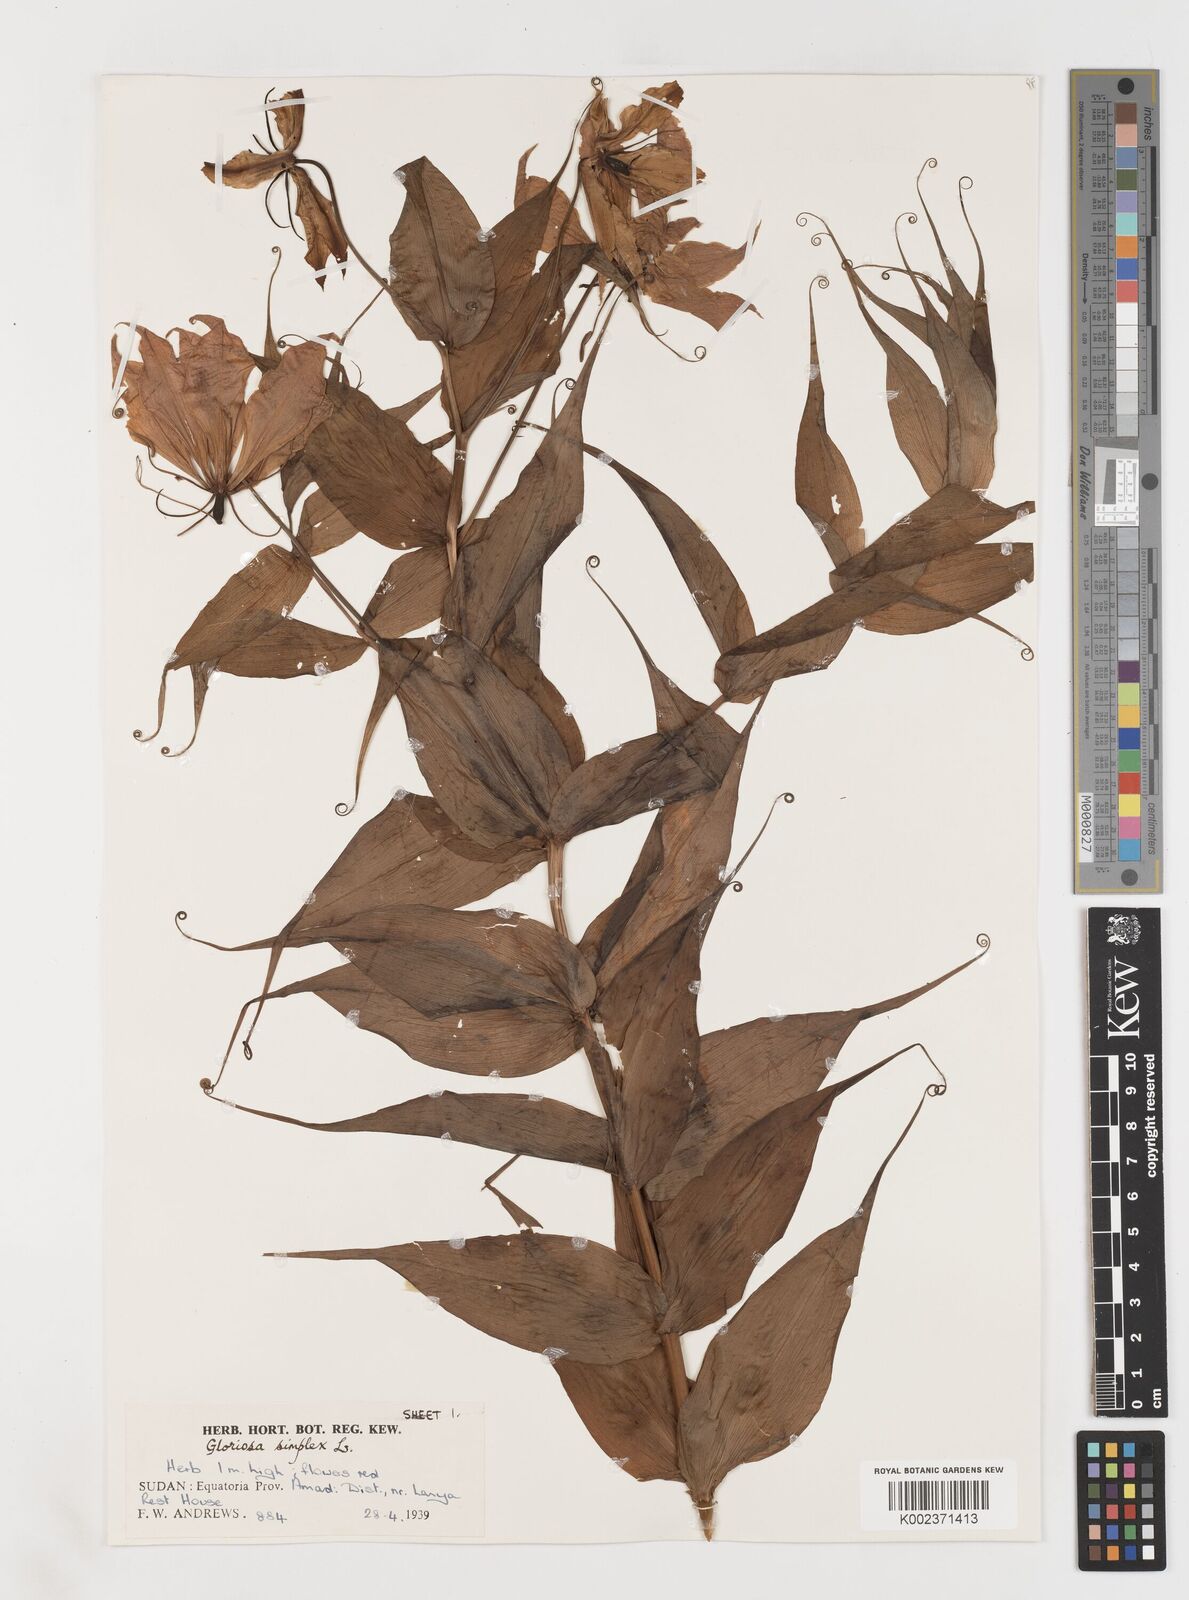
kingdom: Plantae
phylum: Tracheophyta
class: Liliopsida
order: Liliales
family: Colchicaceae
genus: Gloriosa
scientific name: Gloriosa simplex
